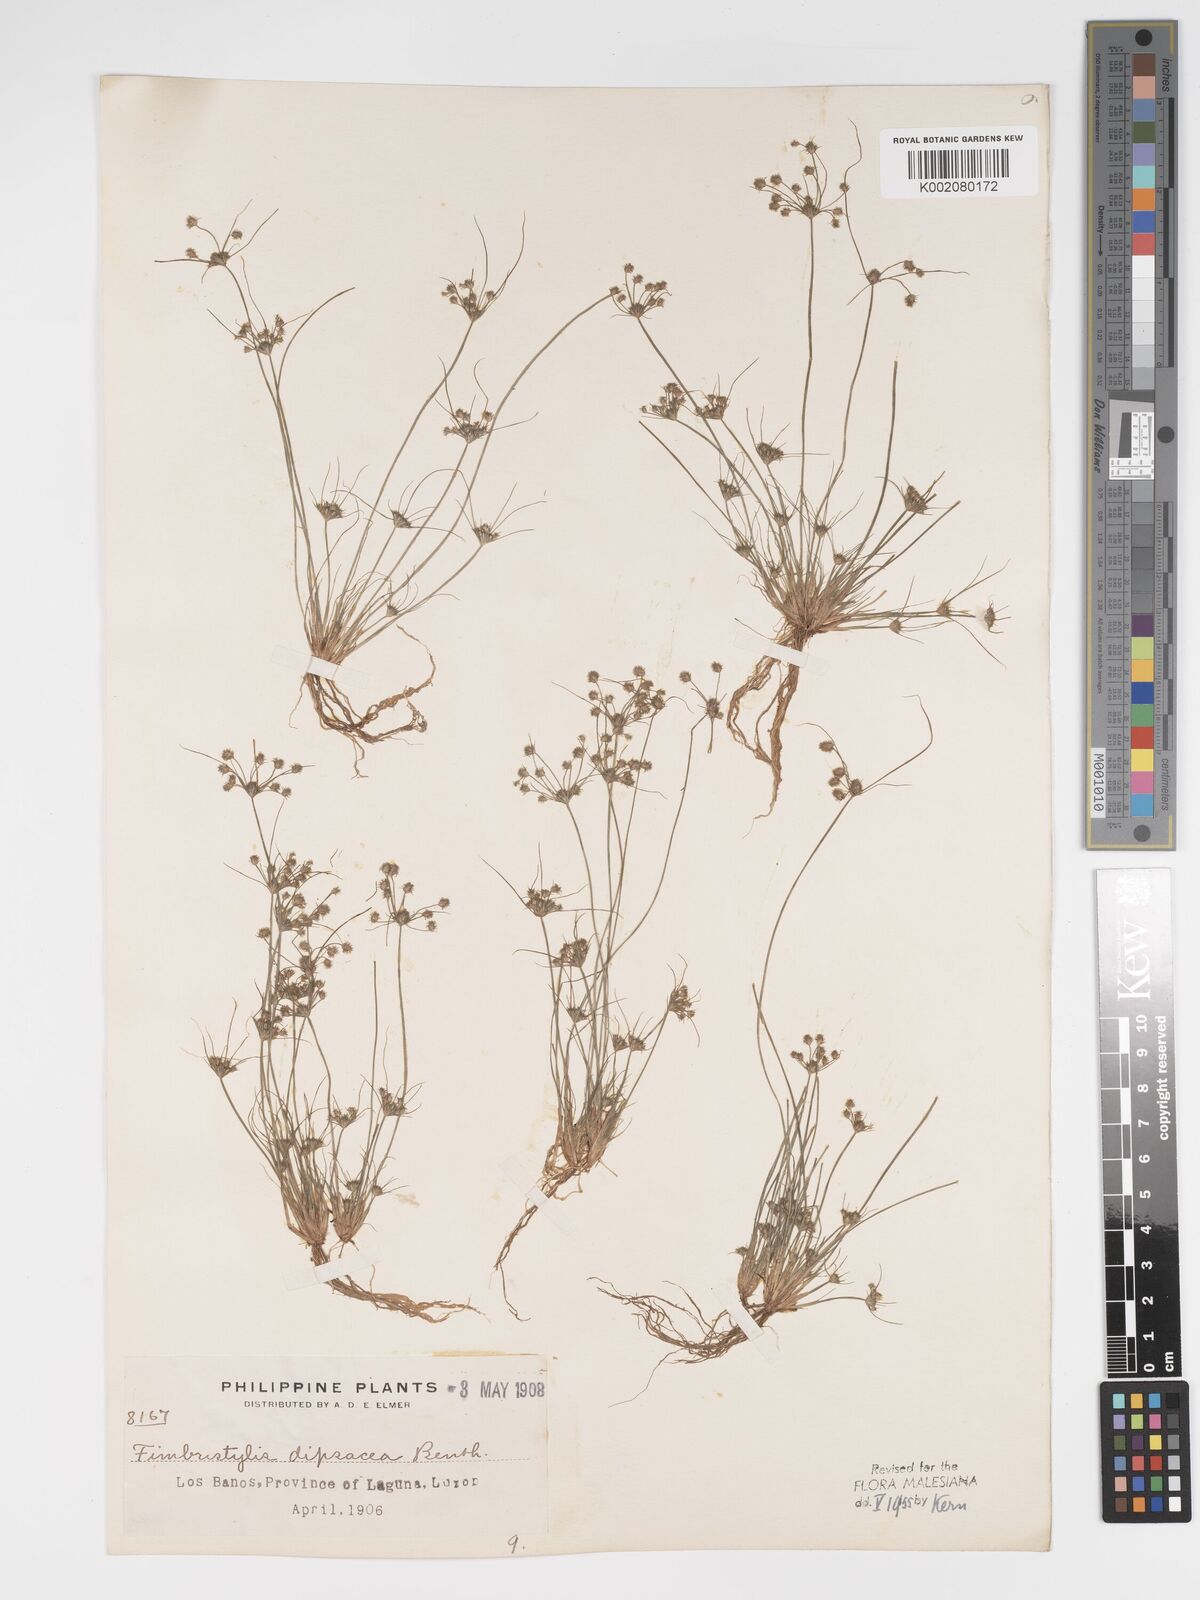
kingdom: Plantae
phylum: Tracheophyta
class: Liliopsida
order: Poales
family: Cyperaceae
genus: Fimbristylis
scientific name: Fimbristylis dipsacea
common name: Harper's fimbristylis
